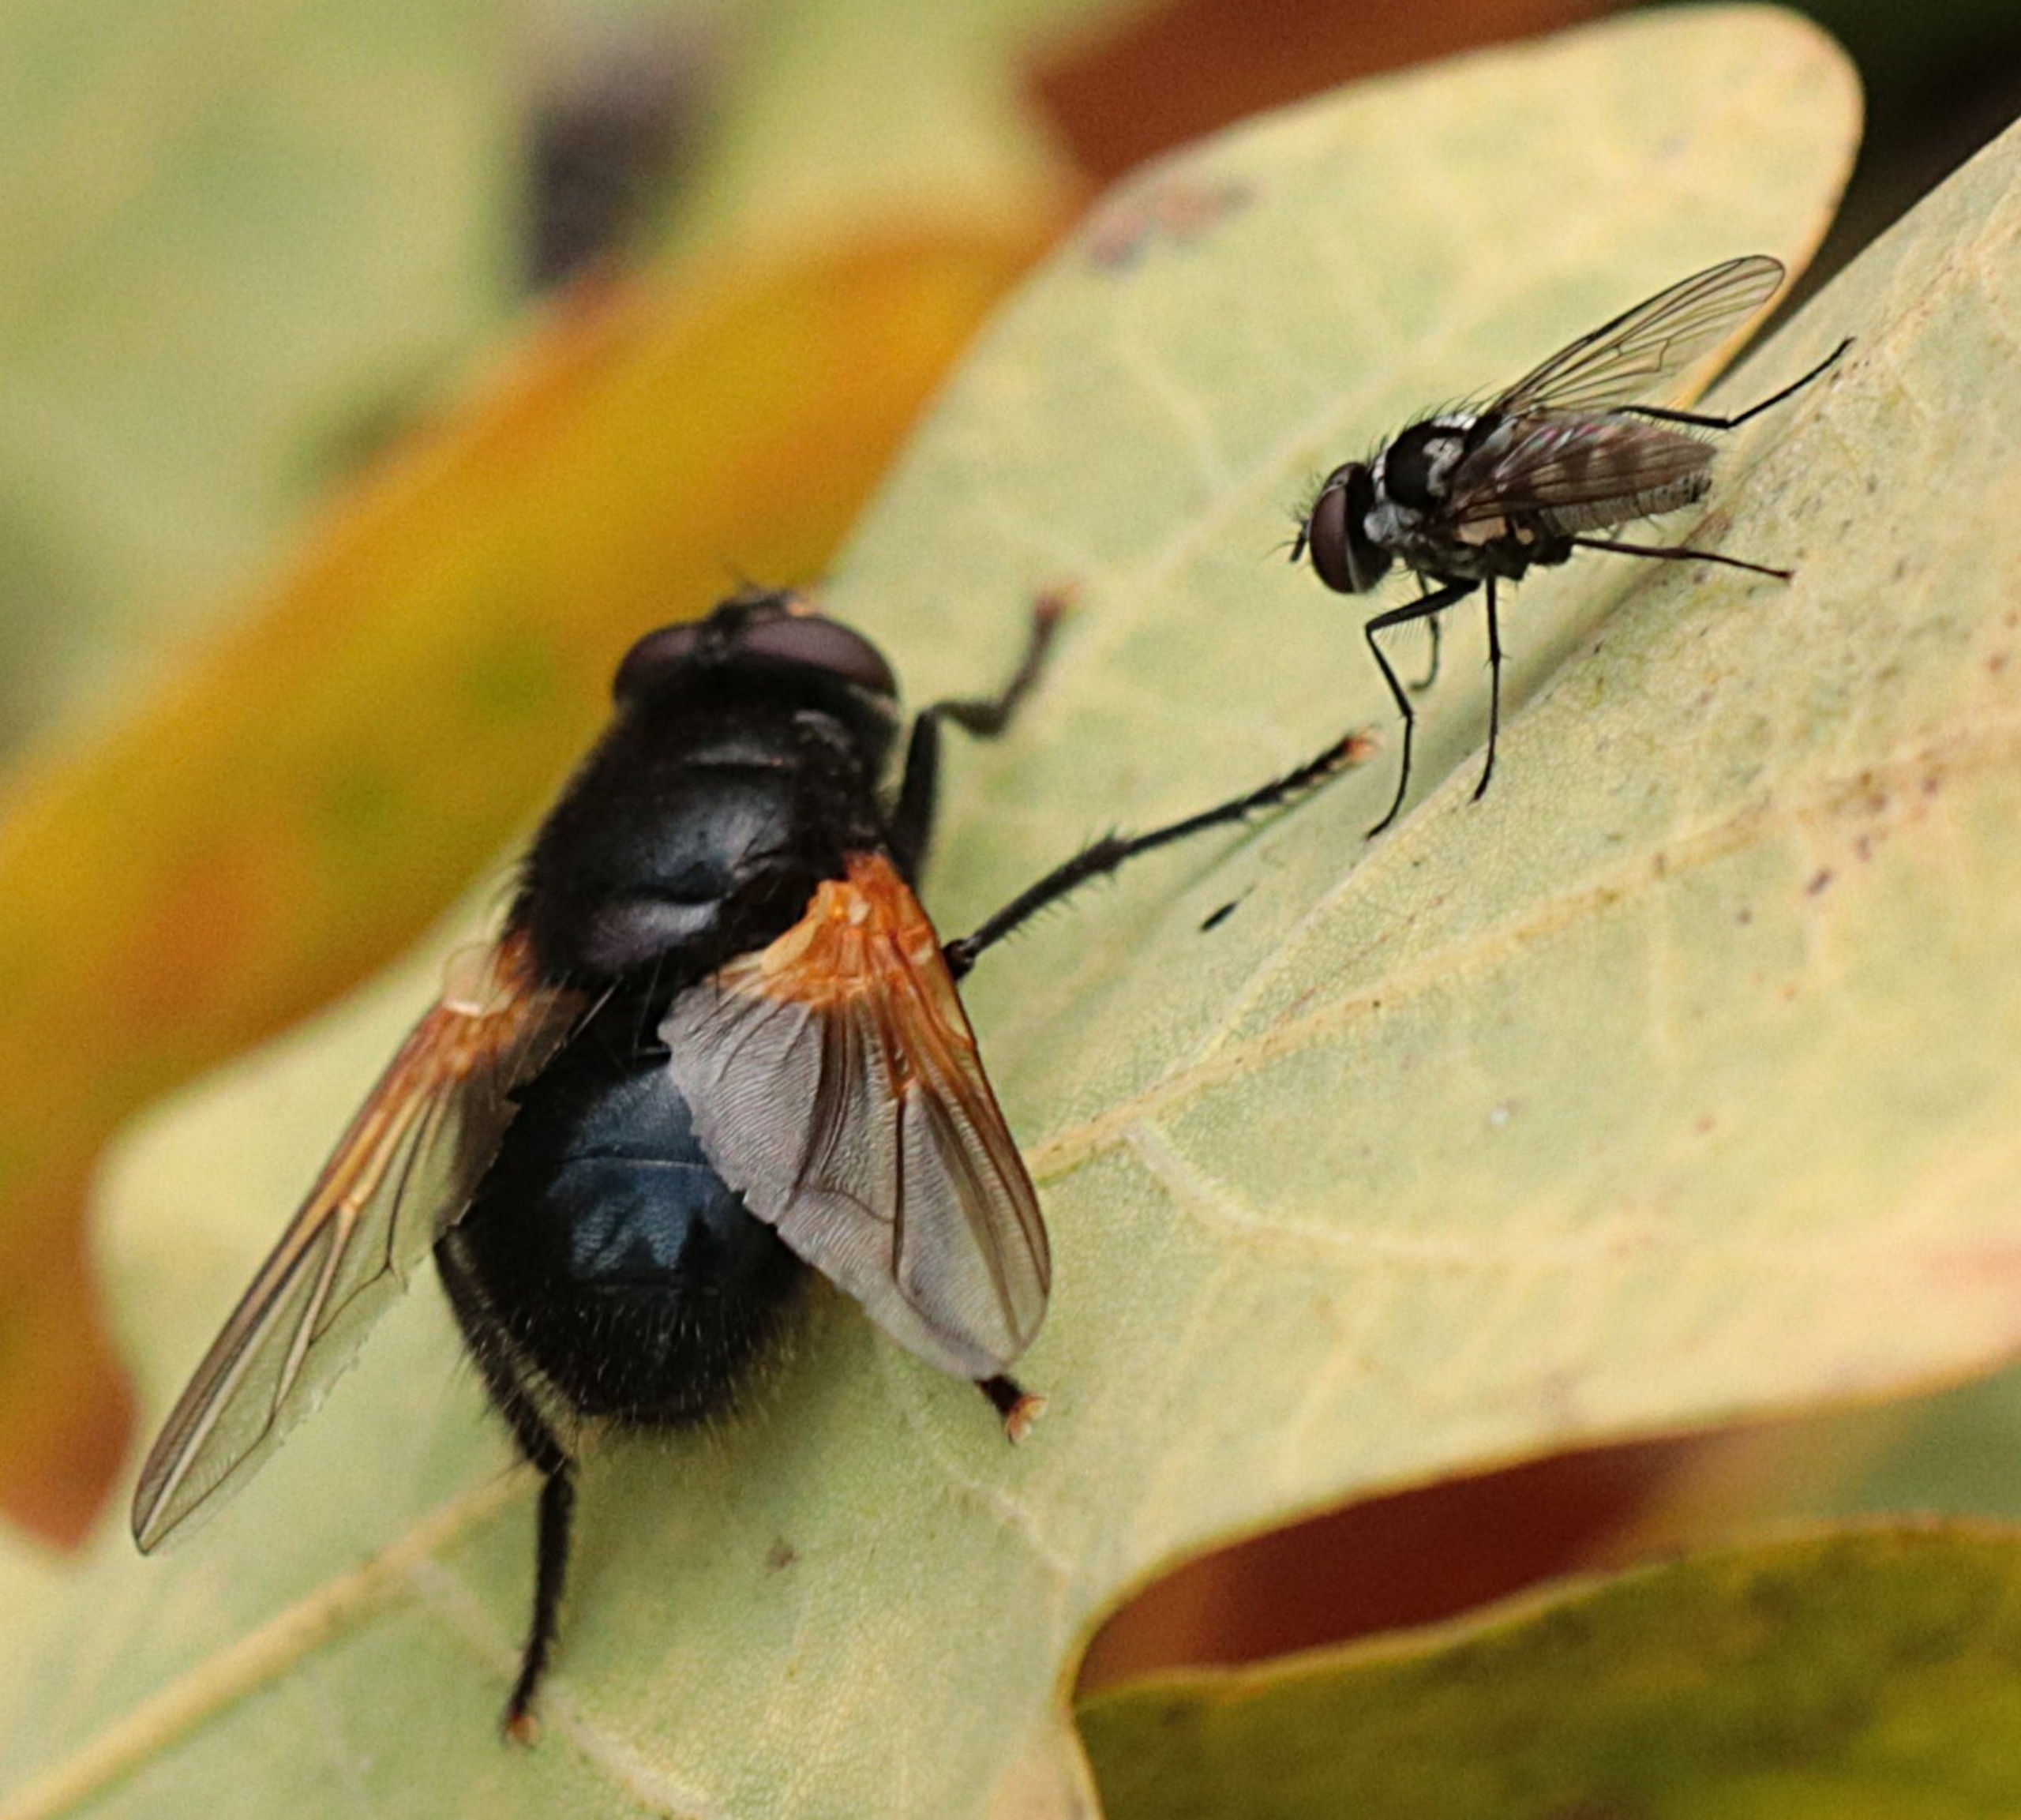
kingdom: Animalia
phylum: Arthropoda
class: Insecta
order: Diptera
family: Muscidae
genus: Mesembrina
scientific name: Mesembrina meridiana
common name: Gulvinget flue
